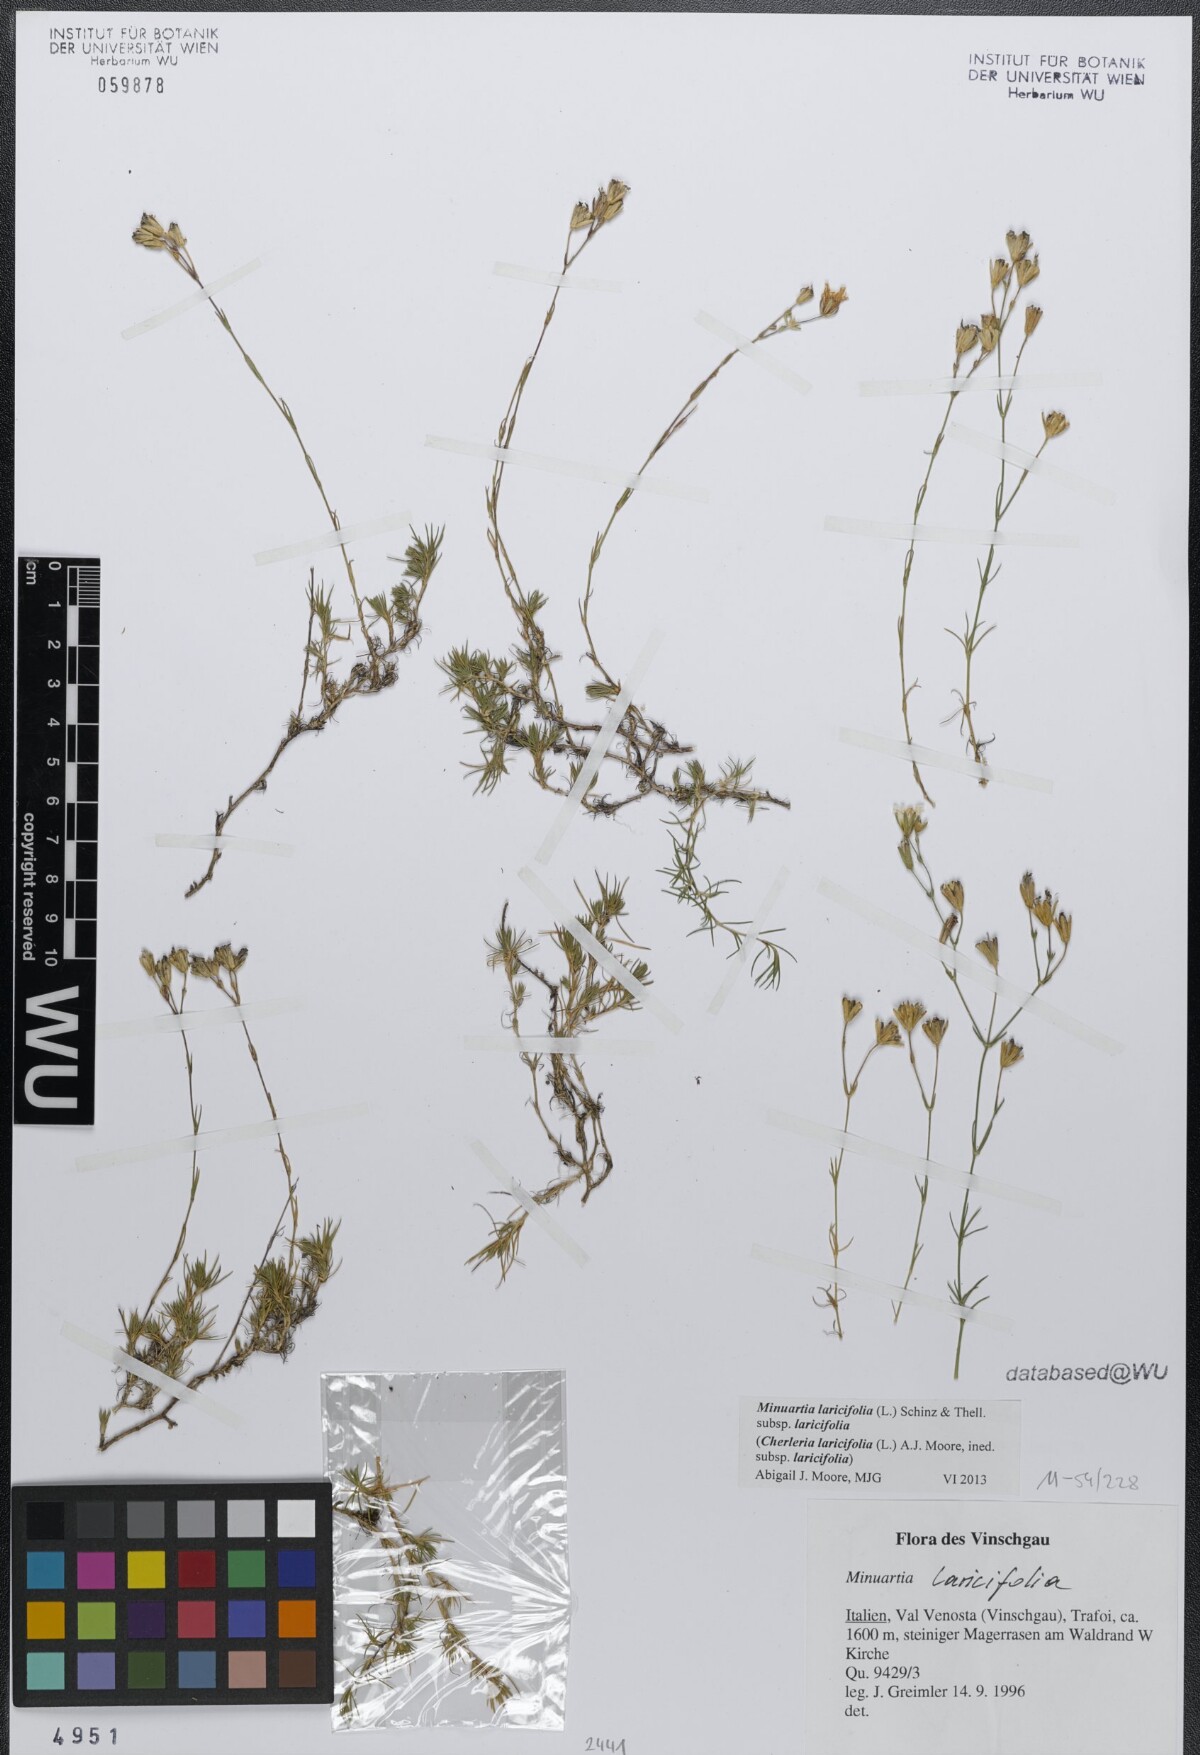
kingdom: Plantae
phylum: Tracheophyta
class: Magnoliopsida
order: Caryophyllales
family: Caryophyllaceae
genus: Cherleria
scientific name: Cherleria laricifolia
